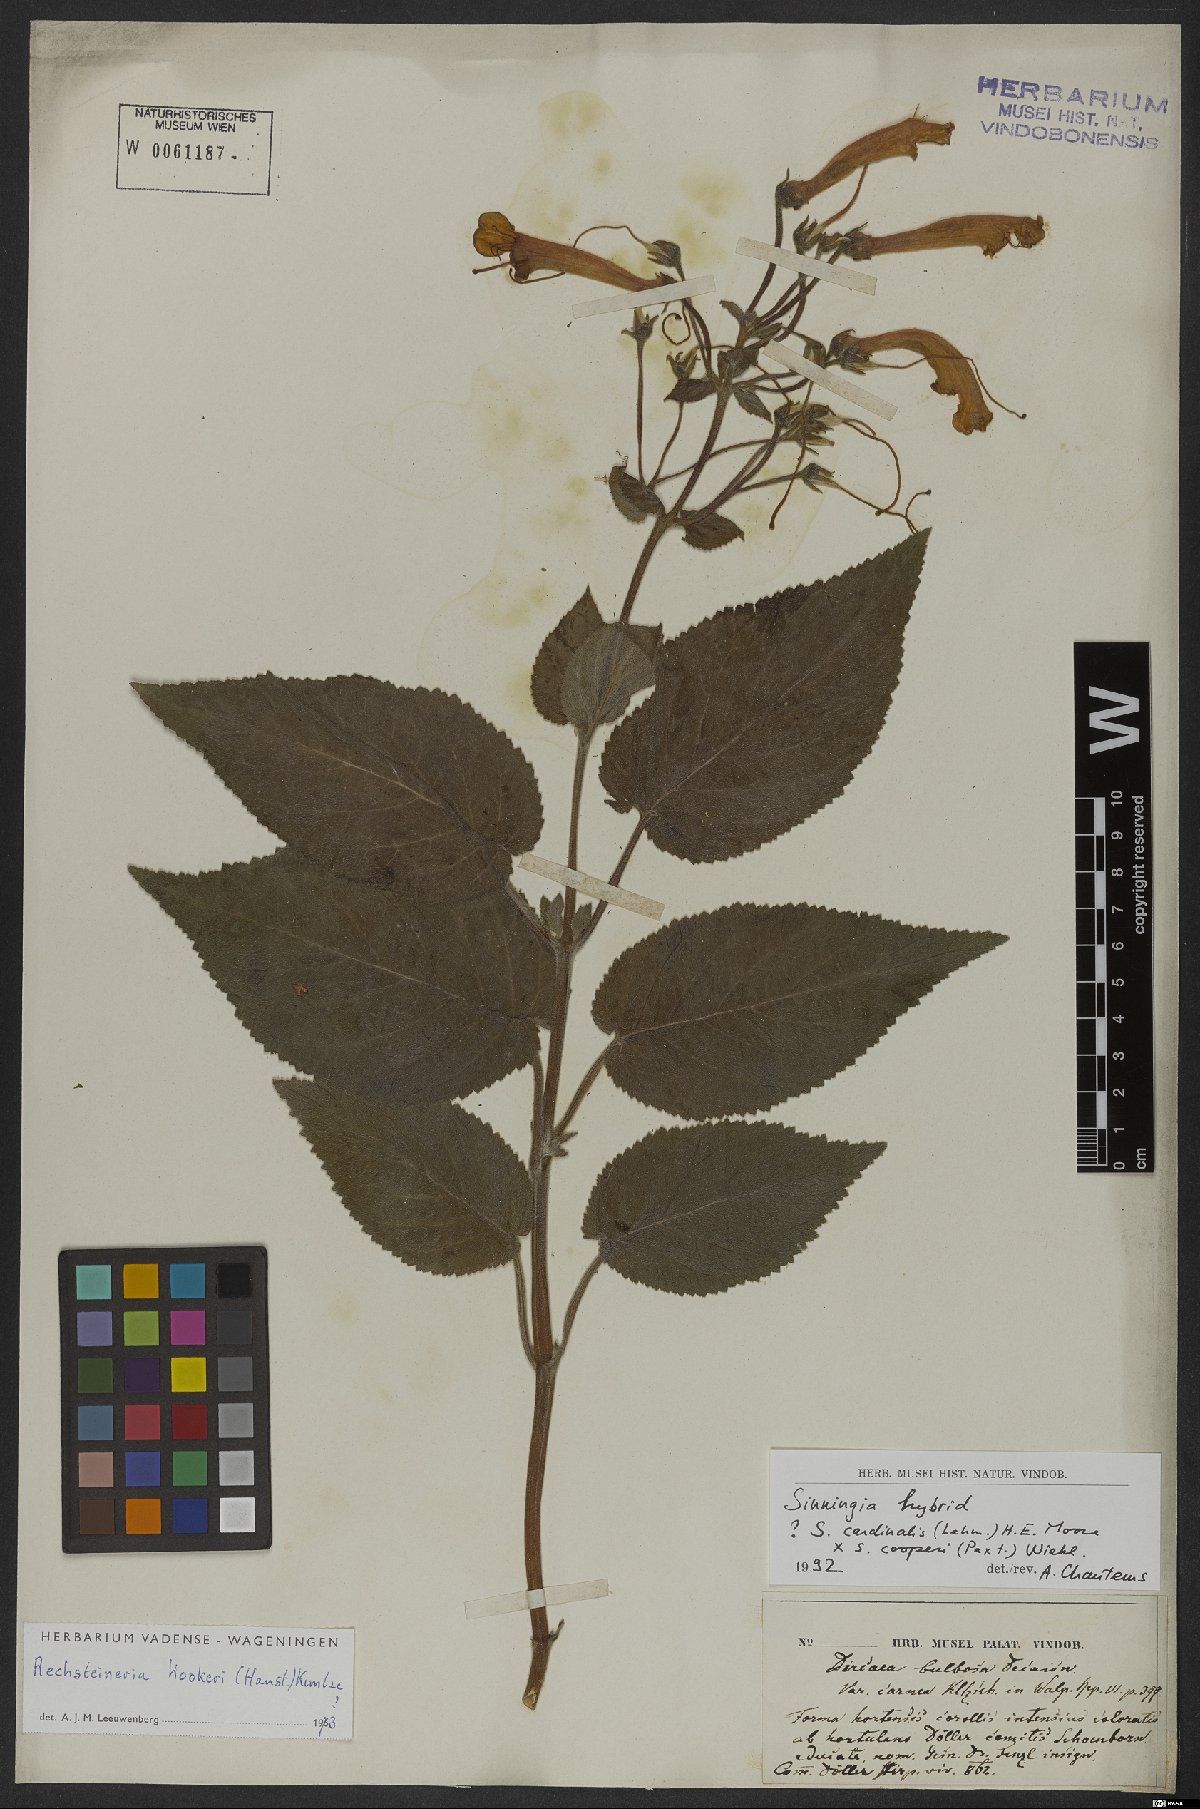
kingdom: Plantae
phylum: Tracheophyta
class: Magnoliopsida
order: Lamiales
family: Gesneriaceae
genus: Sinningia
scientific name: Sinningia
